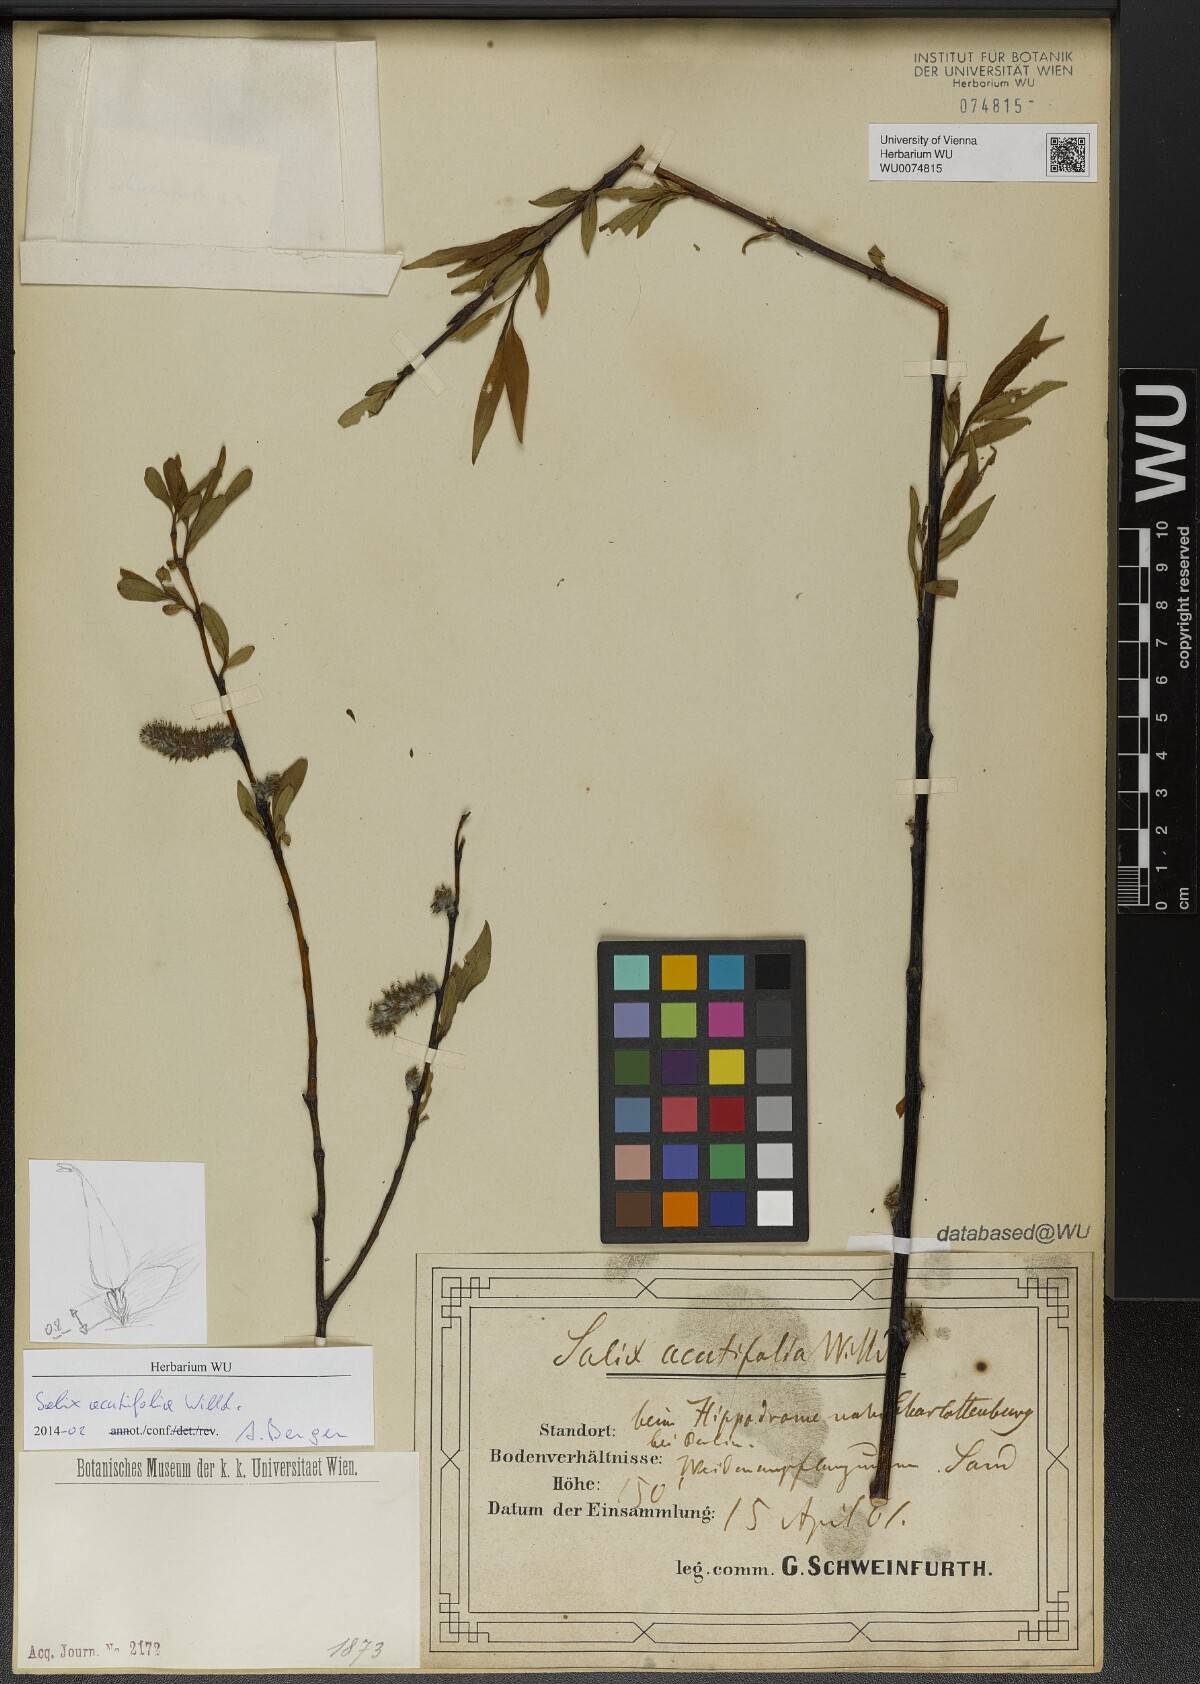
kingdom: Plantae
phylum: Tracheophyta
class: Magnoliopsida
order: Malpighiales
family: Salicaceae
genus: Salix
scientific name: Salix acutifolia
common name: Siberian violet-willow
